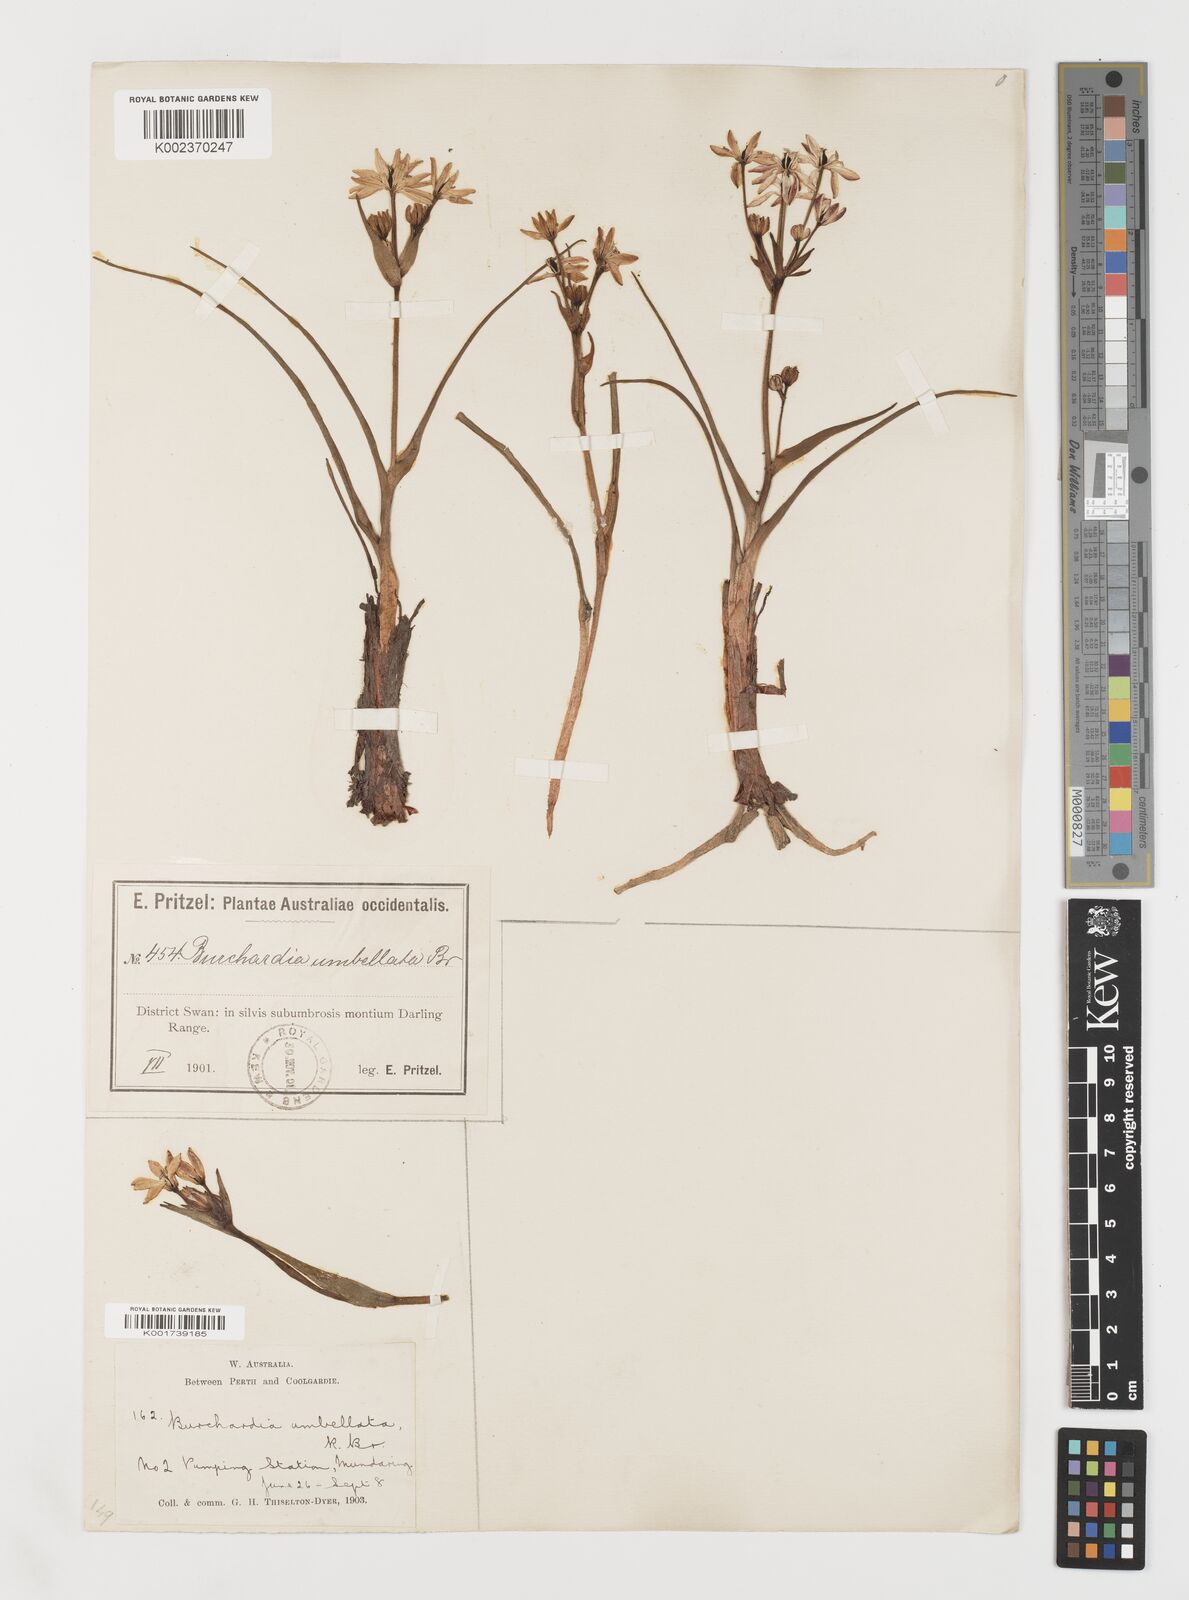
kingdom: Plantae
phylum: Tracheophyta
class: Liliopsida
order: Liliales
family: Colchicaceae
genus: Burchardia
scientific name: Burchardia
